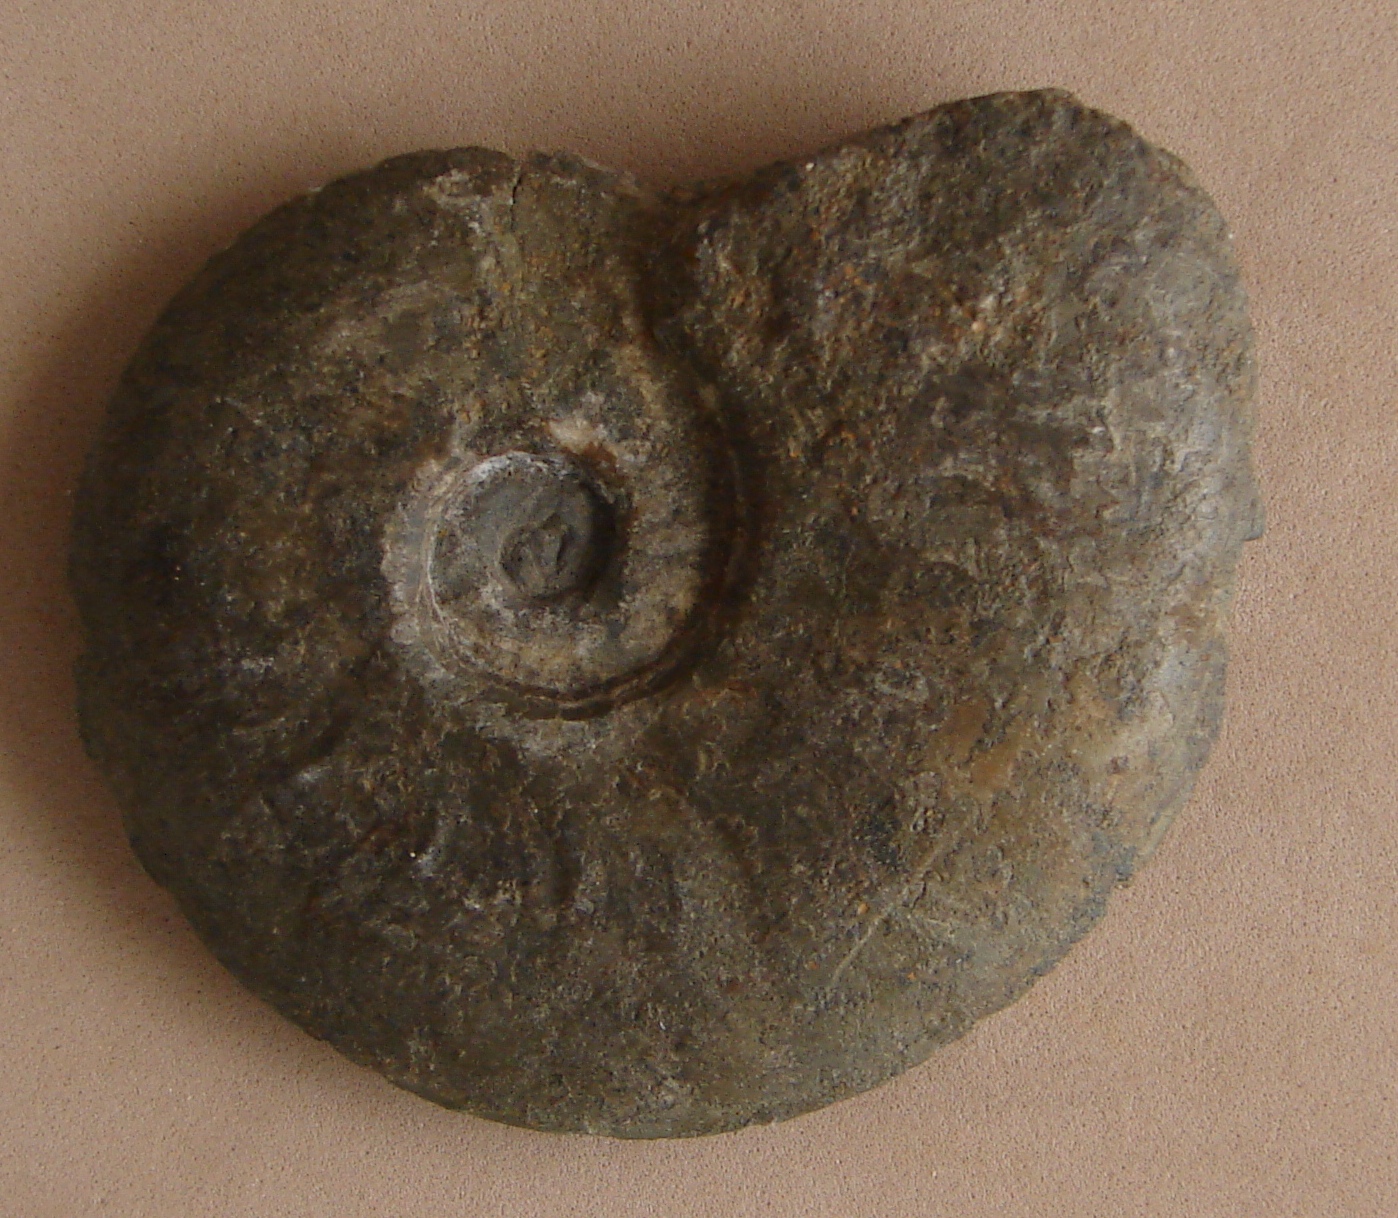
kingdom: Animalia
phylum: Mollusca
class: Cephalopoda
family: Hildoceratidae
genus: Pleydellia
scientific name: Pleydellia misera
